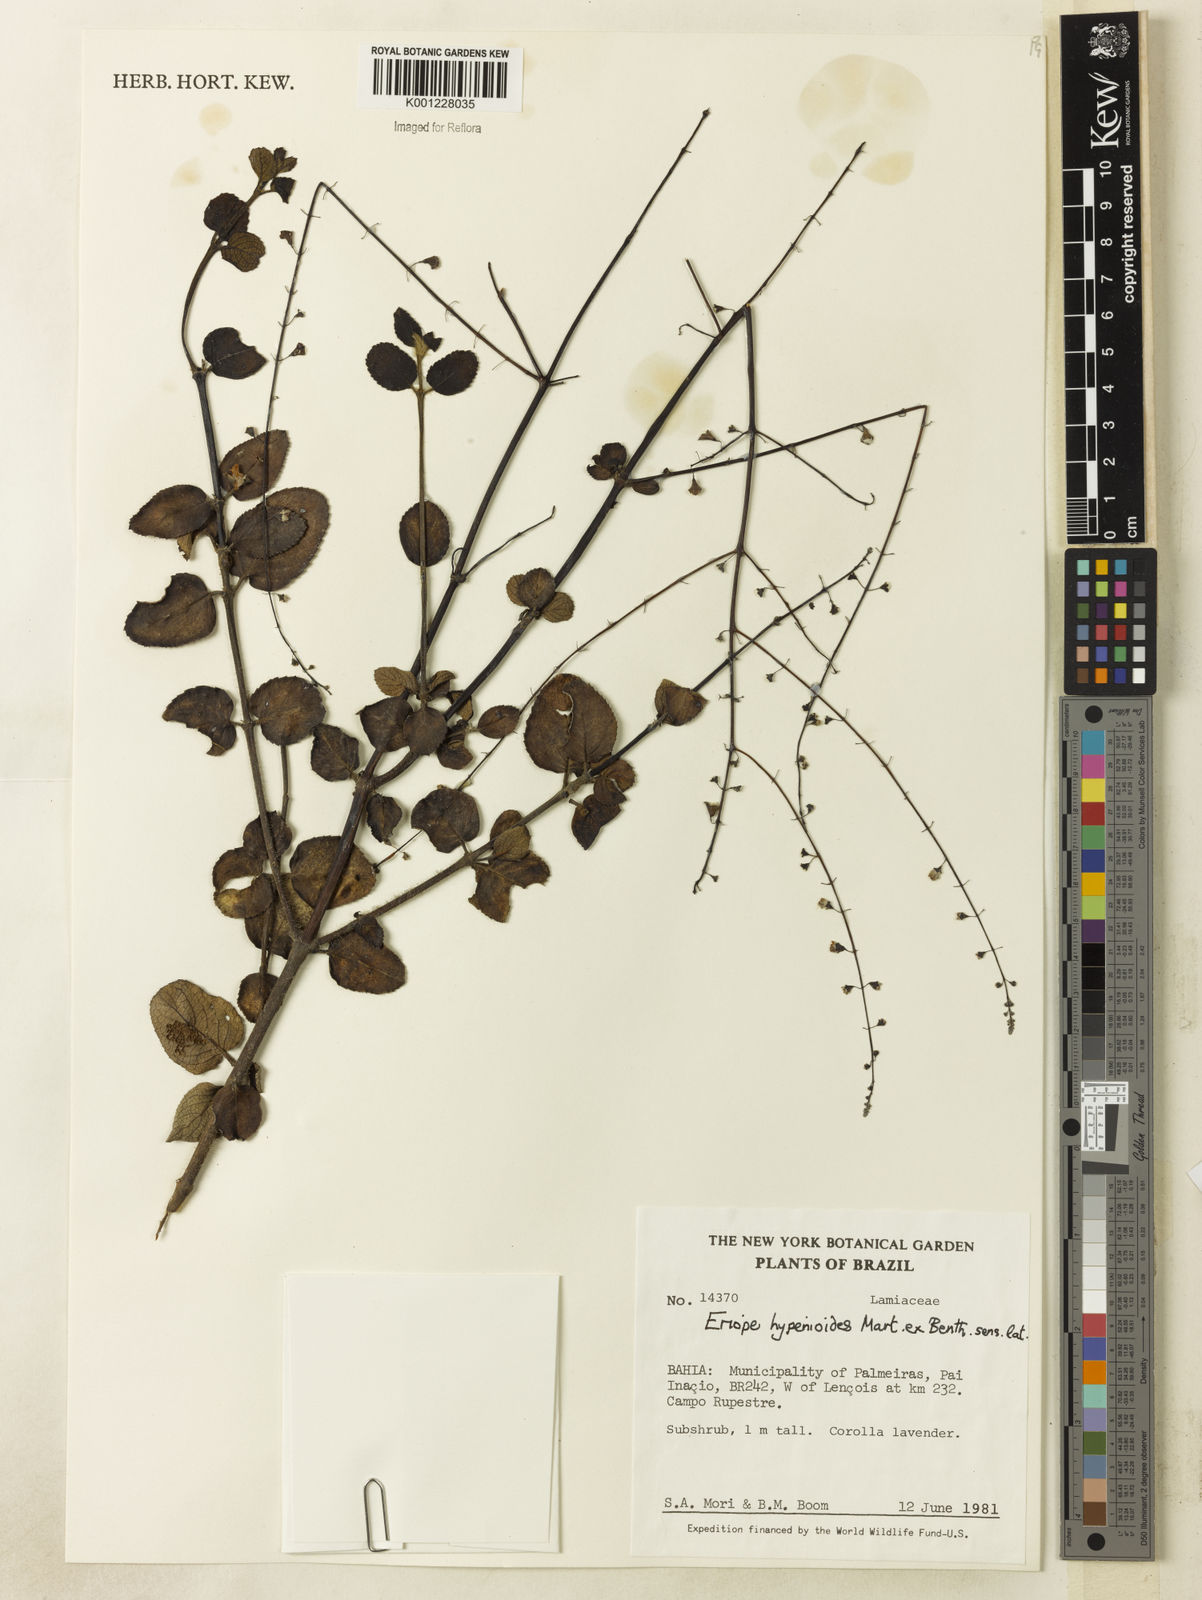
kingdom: Plantae
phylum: Tracheophyta
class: Magnoliopsida
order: Lamiales
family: Lamiaceae
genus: Eriope
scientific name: Eriope hypenioides
